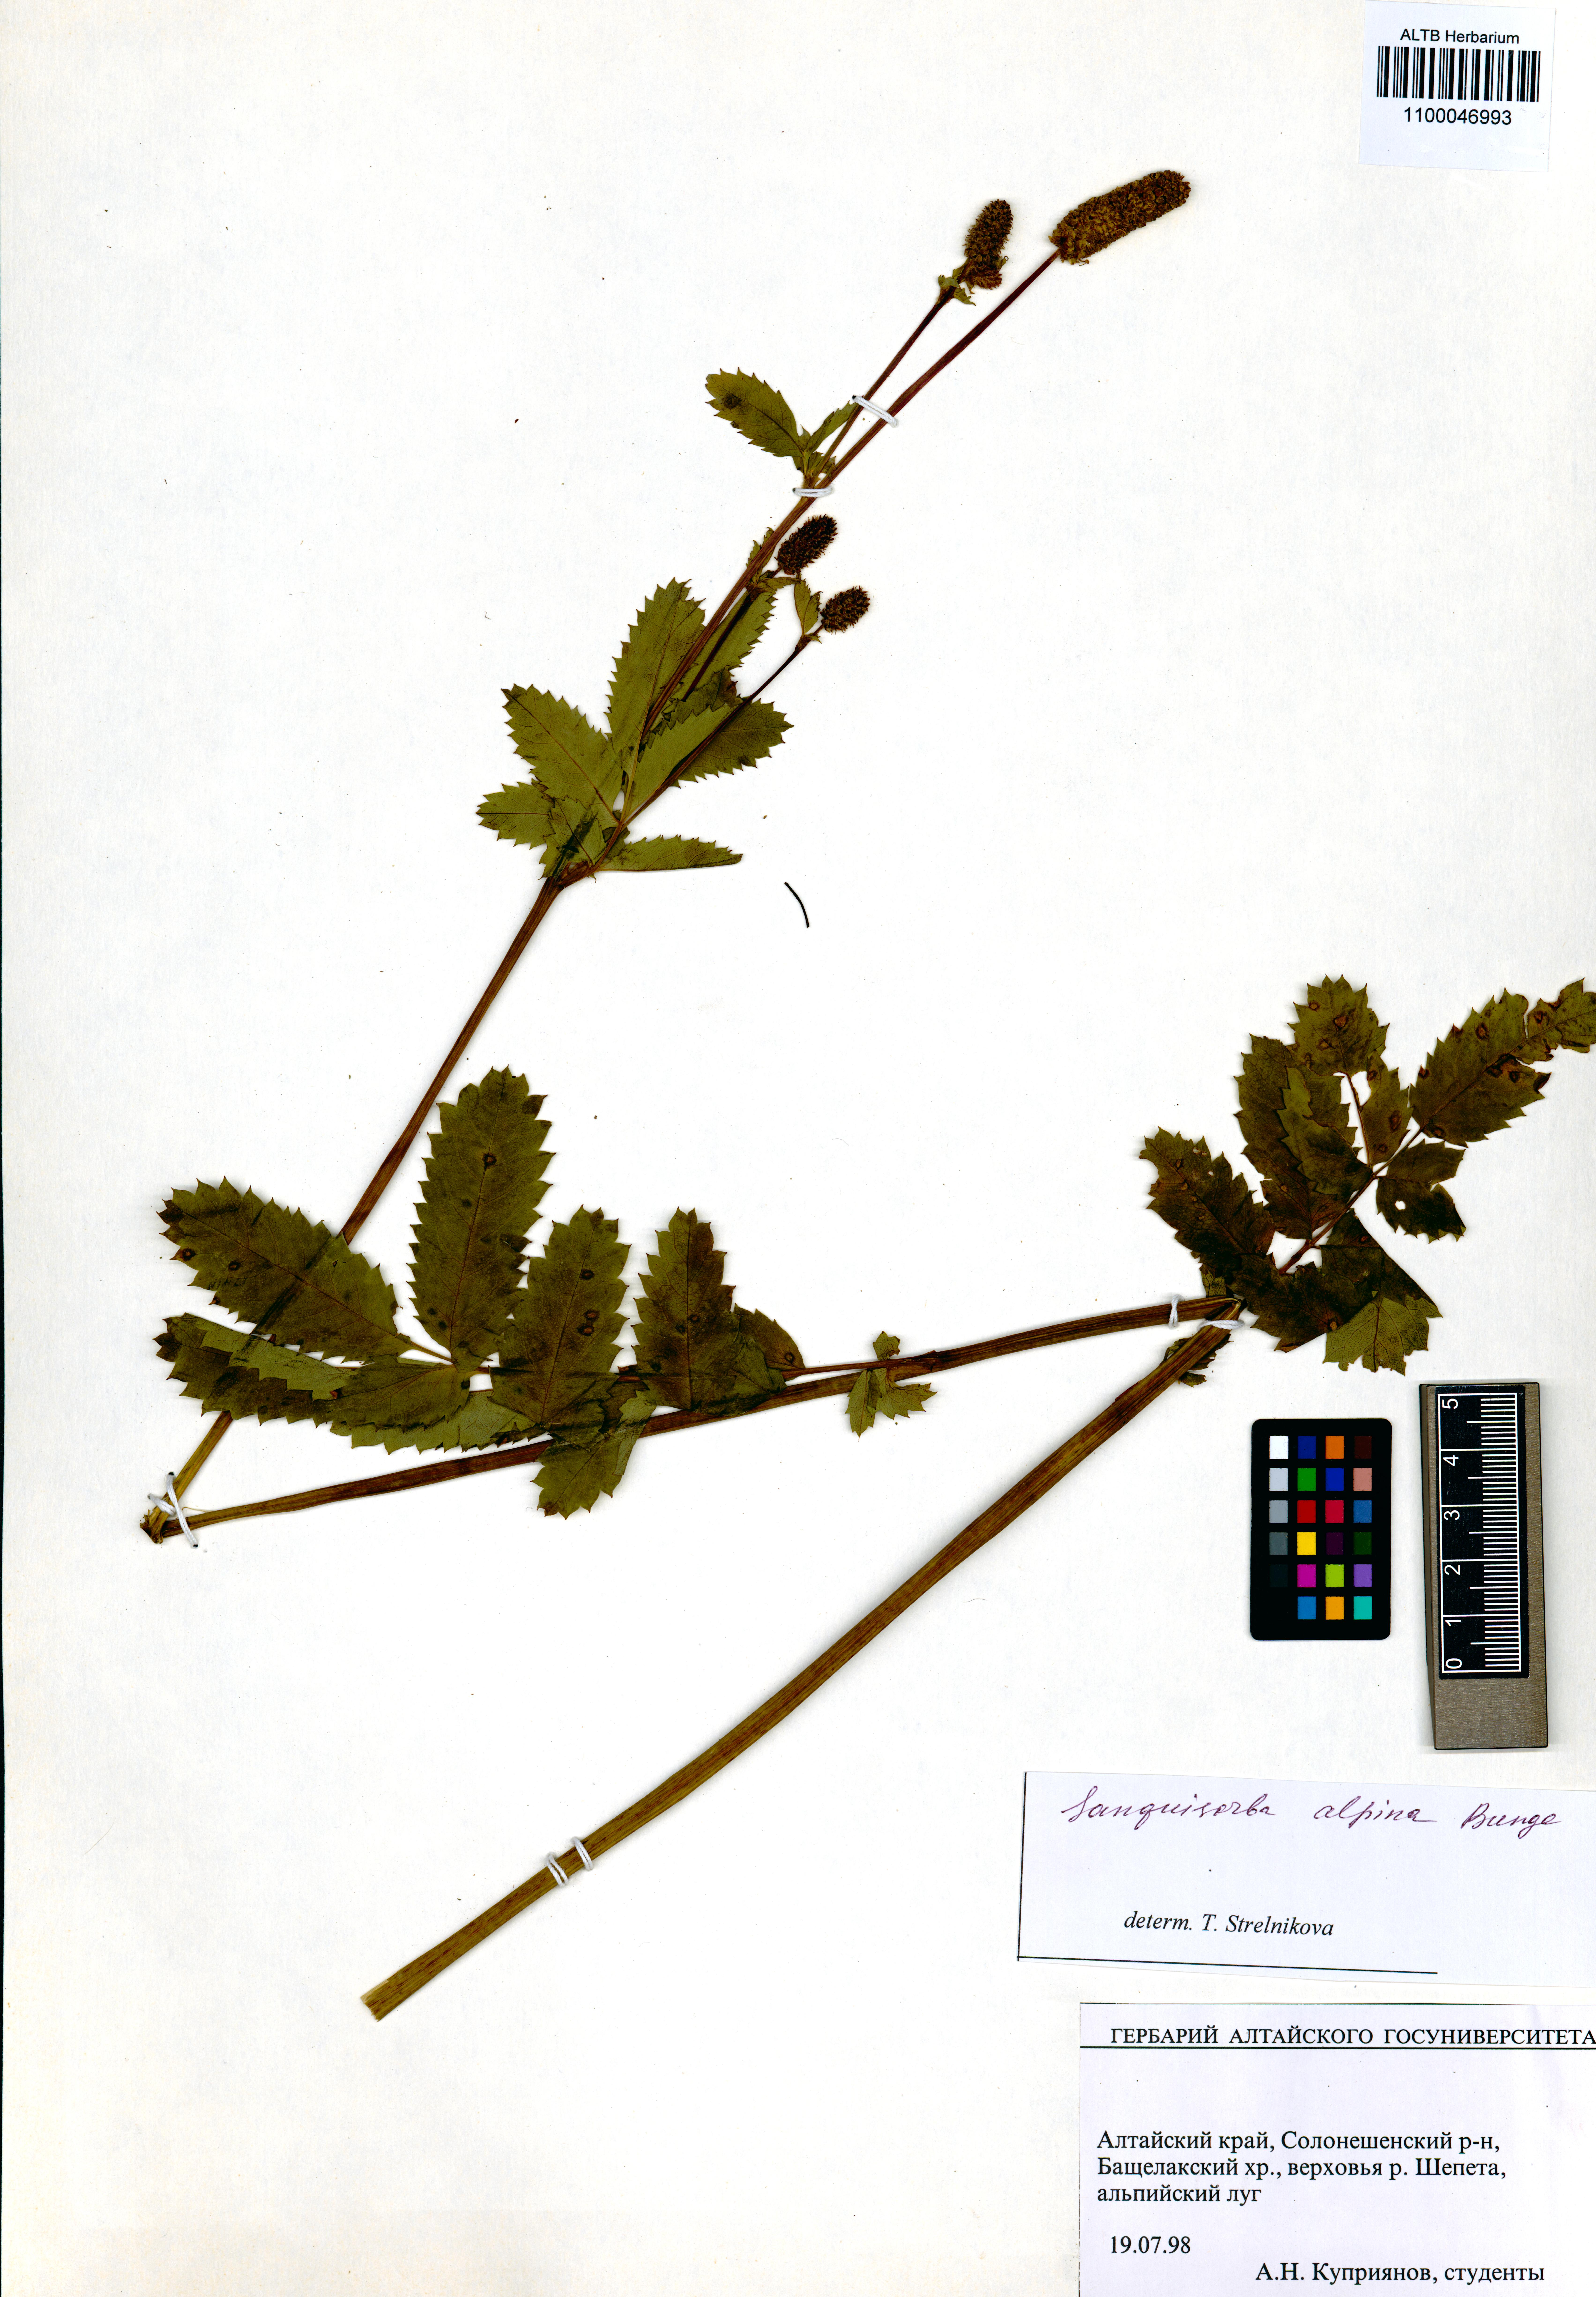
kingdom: Plantae
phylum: Tracheophyta
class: Magnoliopsida
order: Rosales
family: Rosaceae
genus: Sanguisorba
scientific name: Sanguisorba alpina
